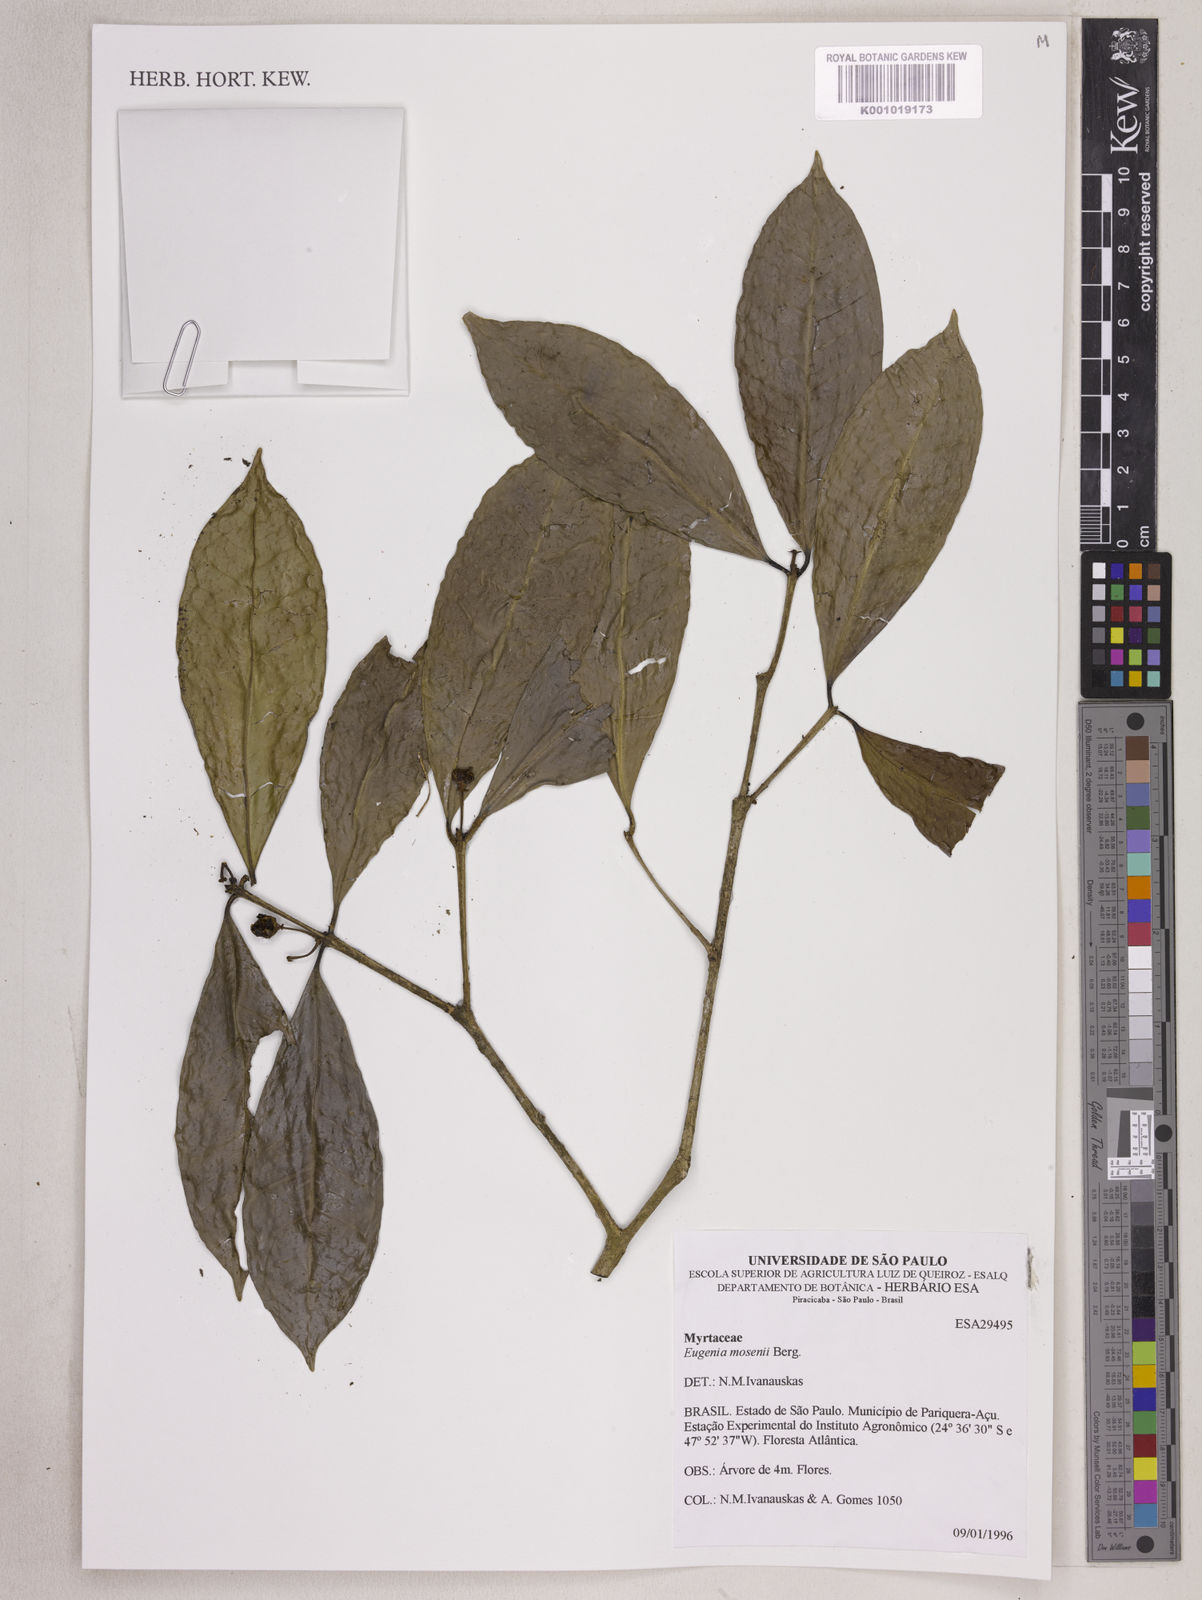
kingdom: Plantae
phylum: Tracheophyta
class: Magnoliopsida
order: Myrtales
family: Myrtaceae
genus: Eugenia
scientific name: Eugenia mosenii
